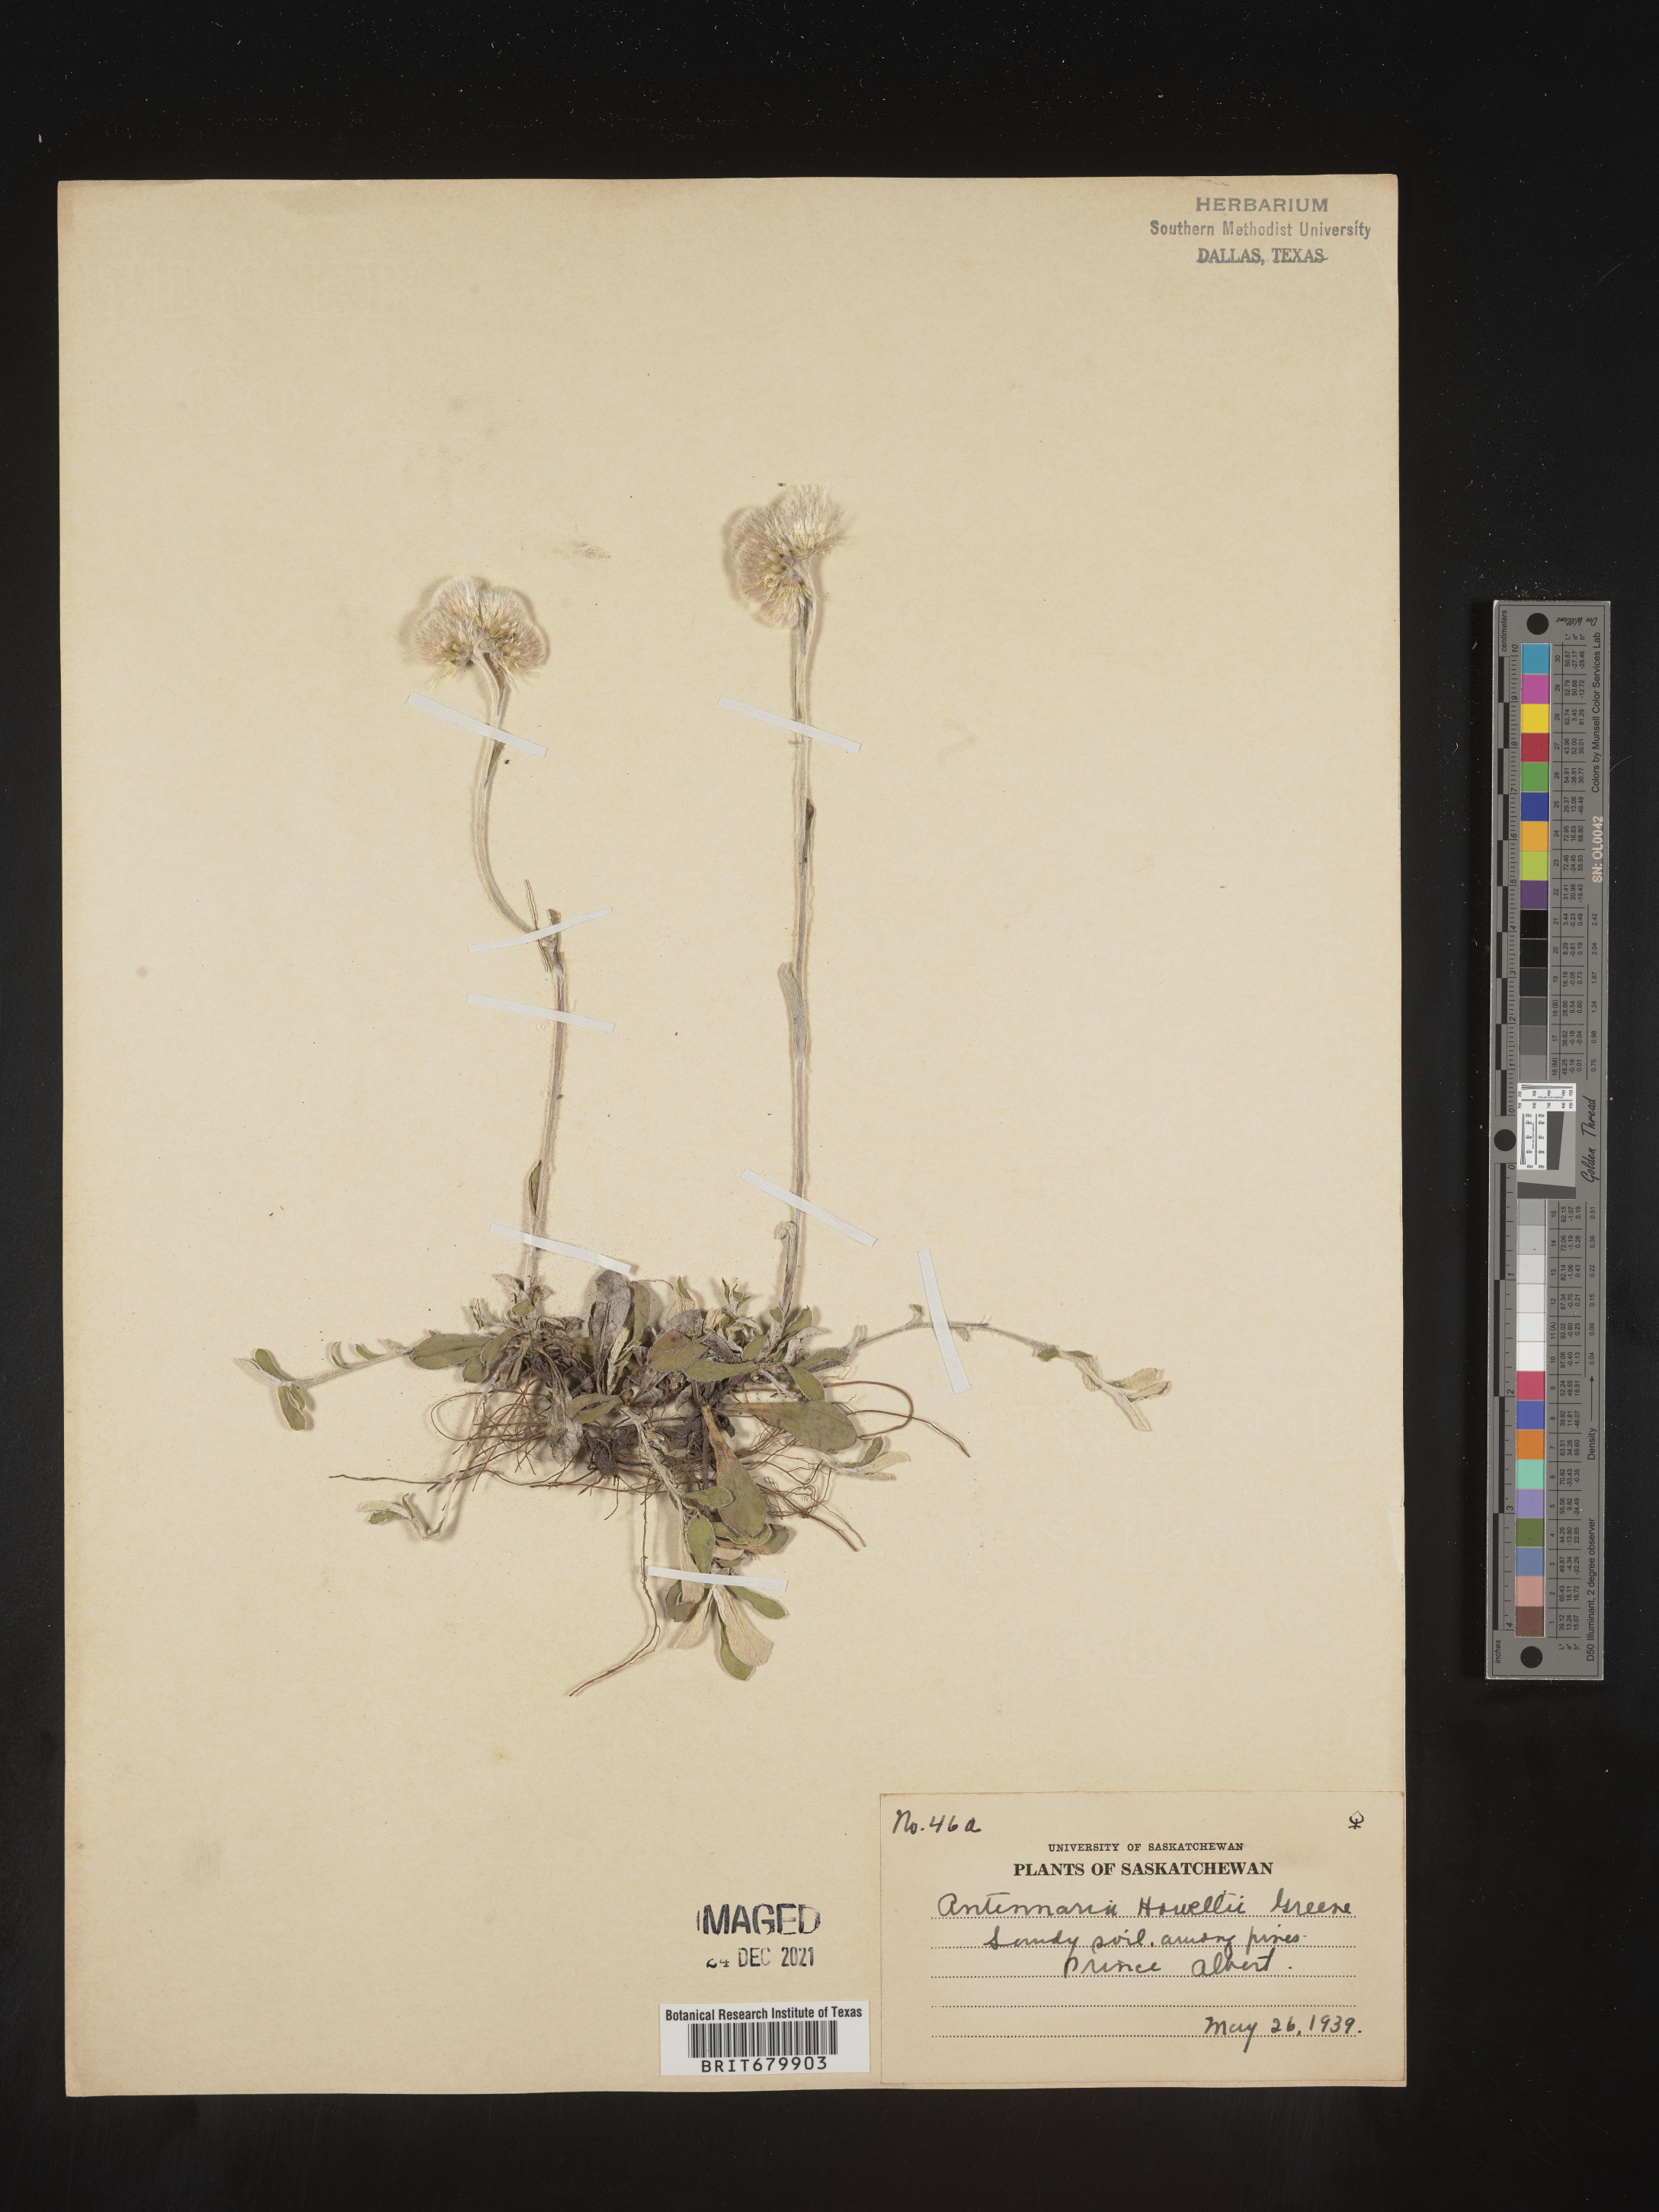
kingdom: Plantae
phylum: Tracheophyta
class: Magnoliopsida
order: Asterales
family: Asteraceae
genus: Antennaria
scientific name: Antennaria howellii
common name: Howell's pussytoes
